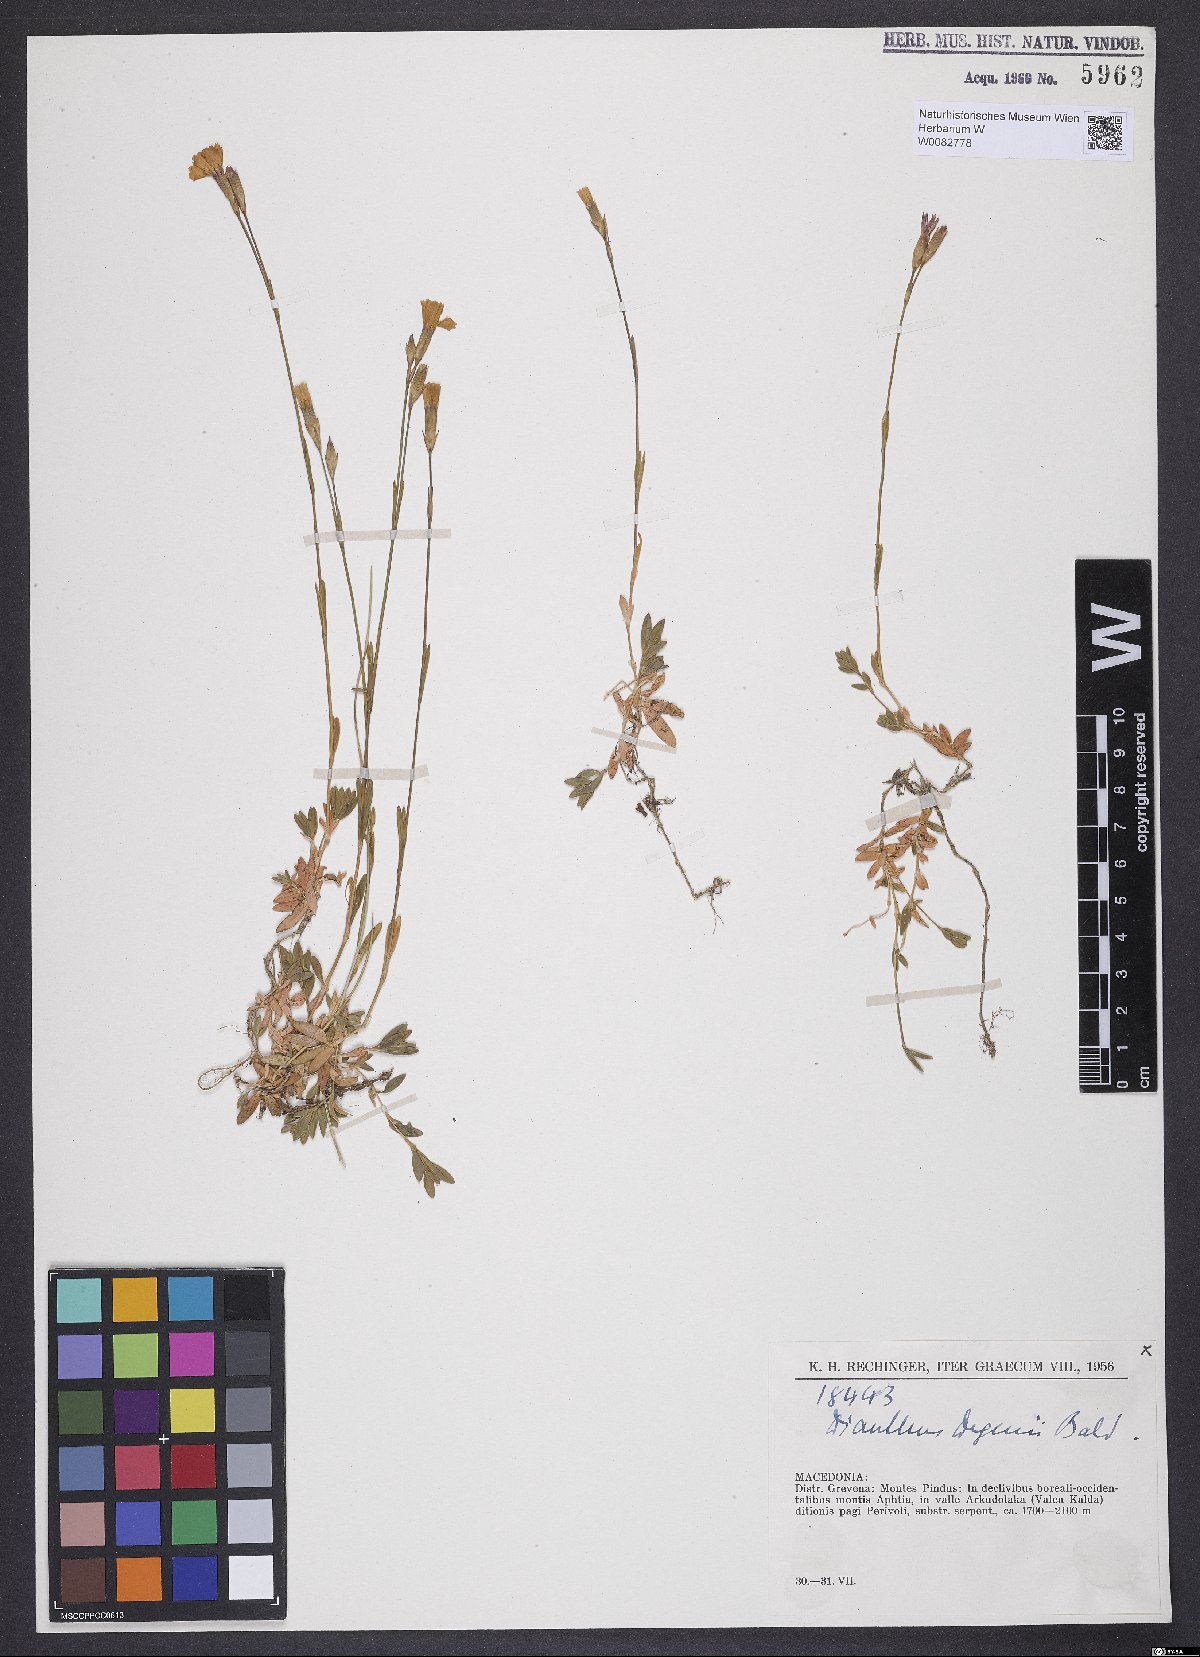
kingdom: Plantae
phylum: Tracheophyta
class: Magnoliopsida
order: Caryophyllales
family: Caryophyllaceae
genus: Dianthus
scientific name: Dianthus deltoides
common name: Maiden pink
